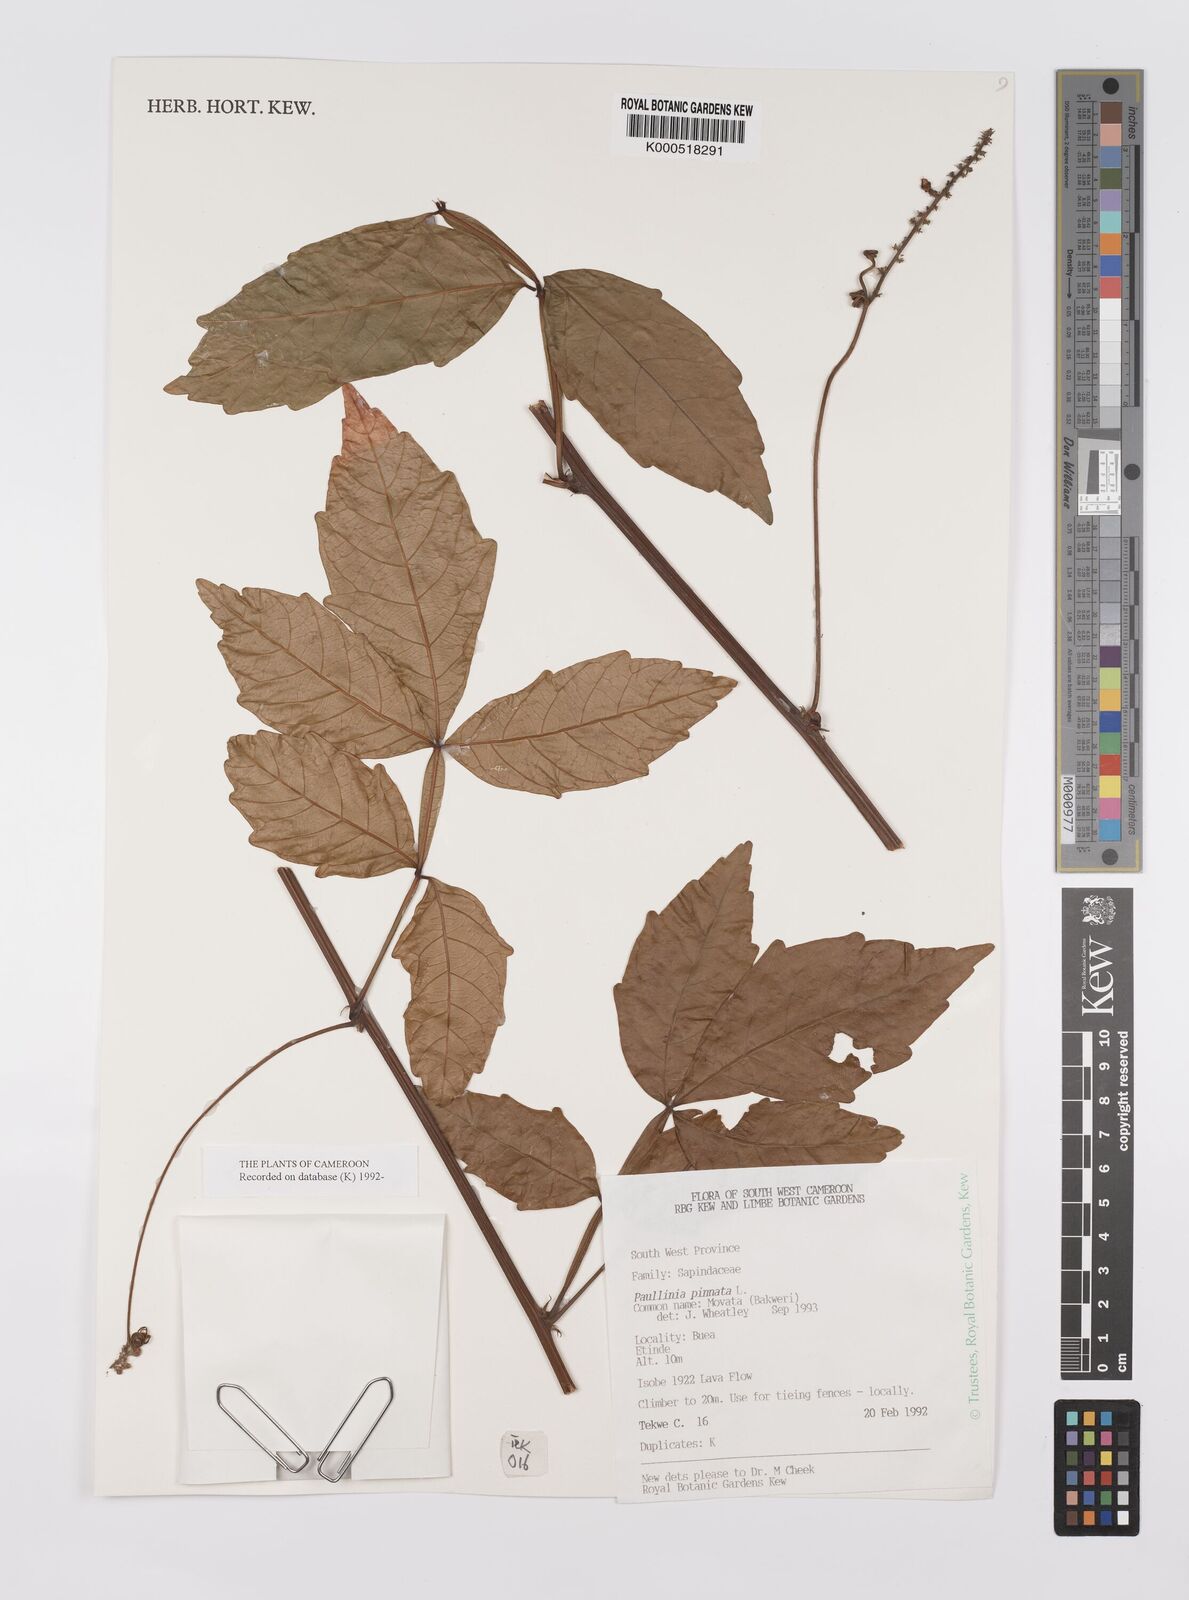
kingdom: Plantae
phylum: Tracheophyta
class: Magnoliopsida
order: Sapindales
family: Sapindaceae
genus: Paullinia
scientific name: Paullinia pinnata
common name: Barbasco
